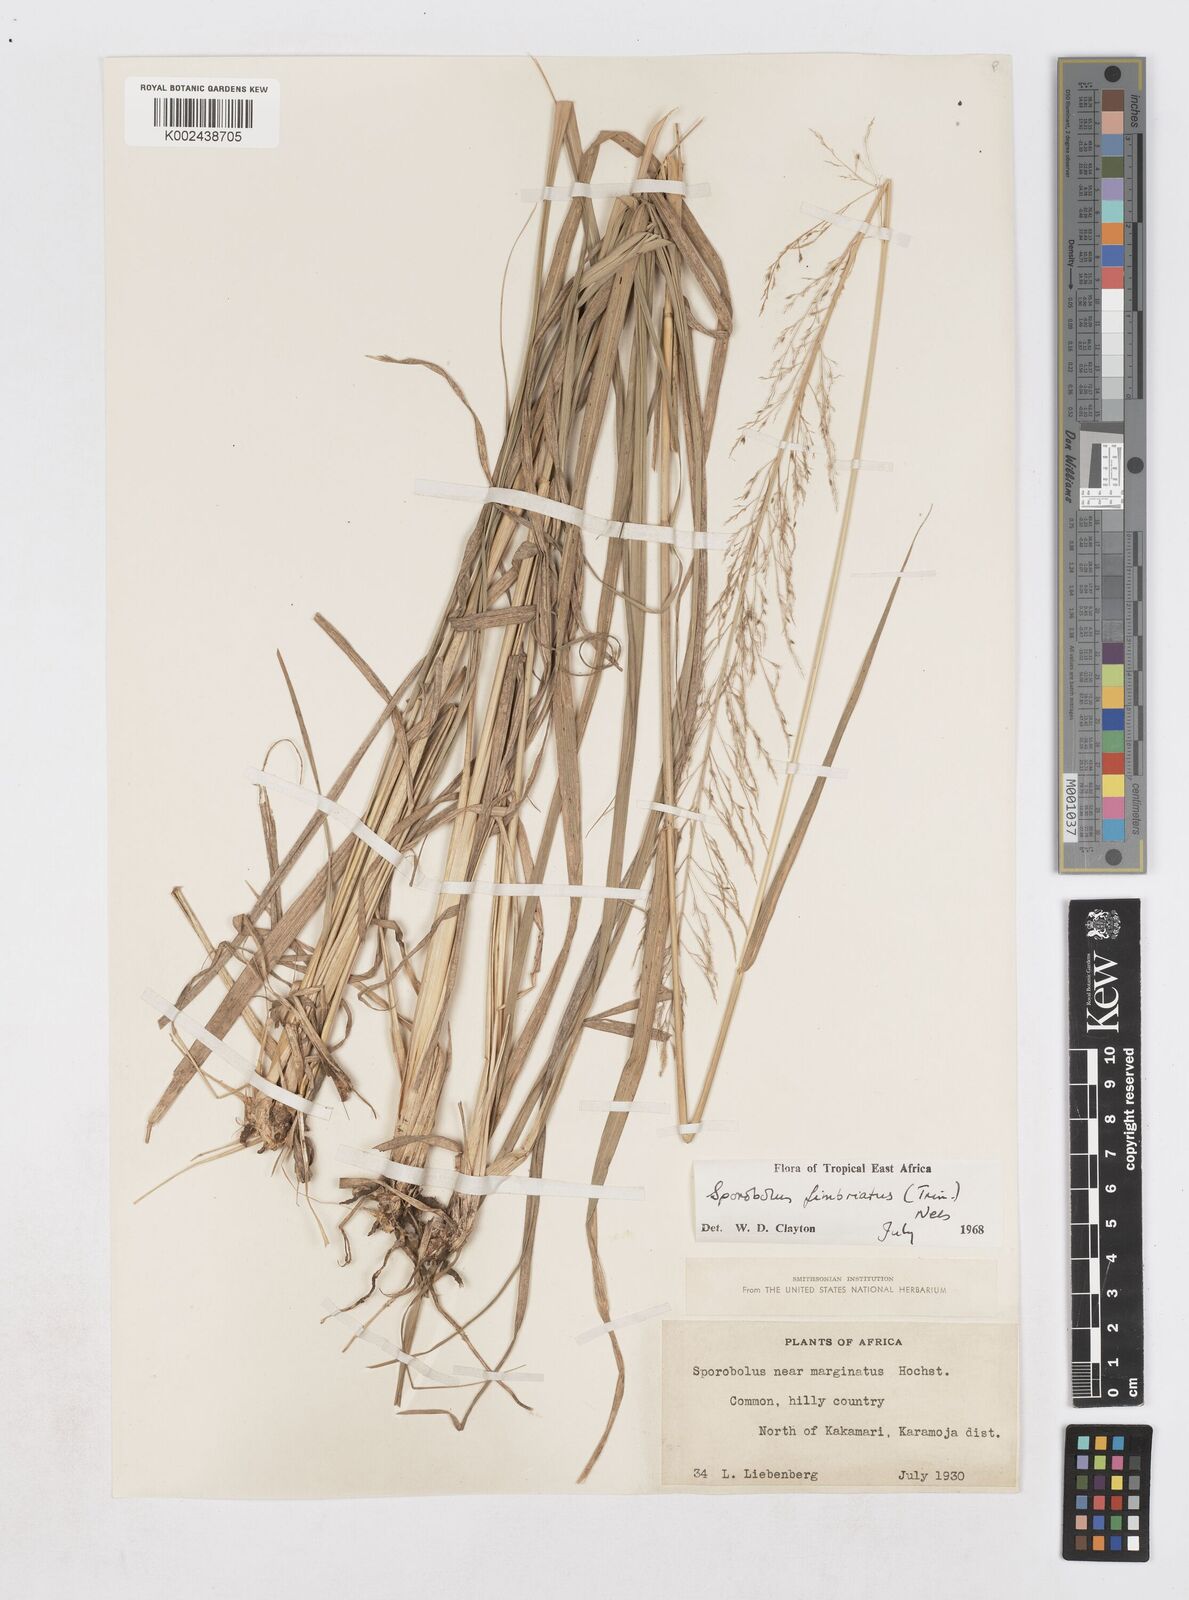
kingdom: Plantae
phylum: Tracheophyta
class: Liliopsida
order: Poales
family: Poaceae
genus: Sporobolus
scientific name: Sporobolus fimbriatus
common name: Fringed dropseed
